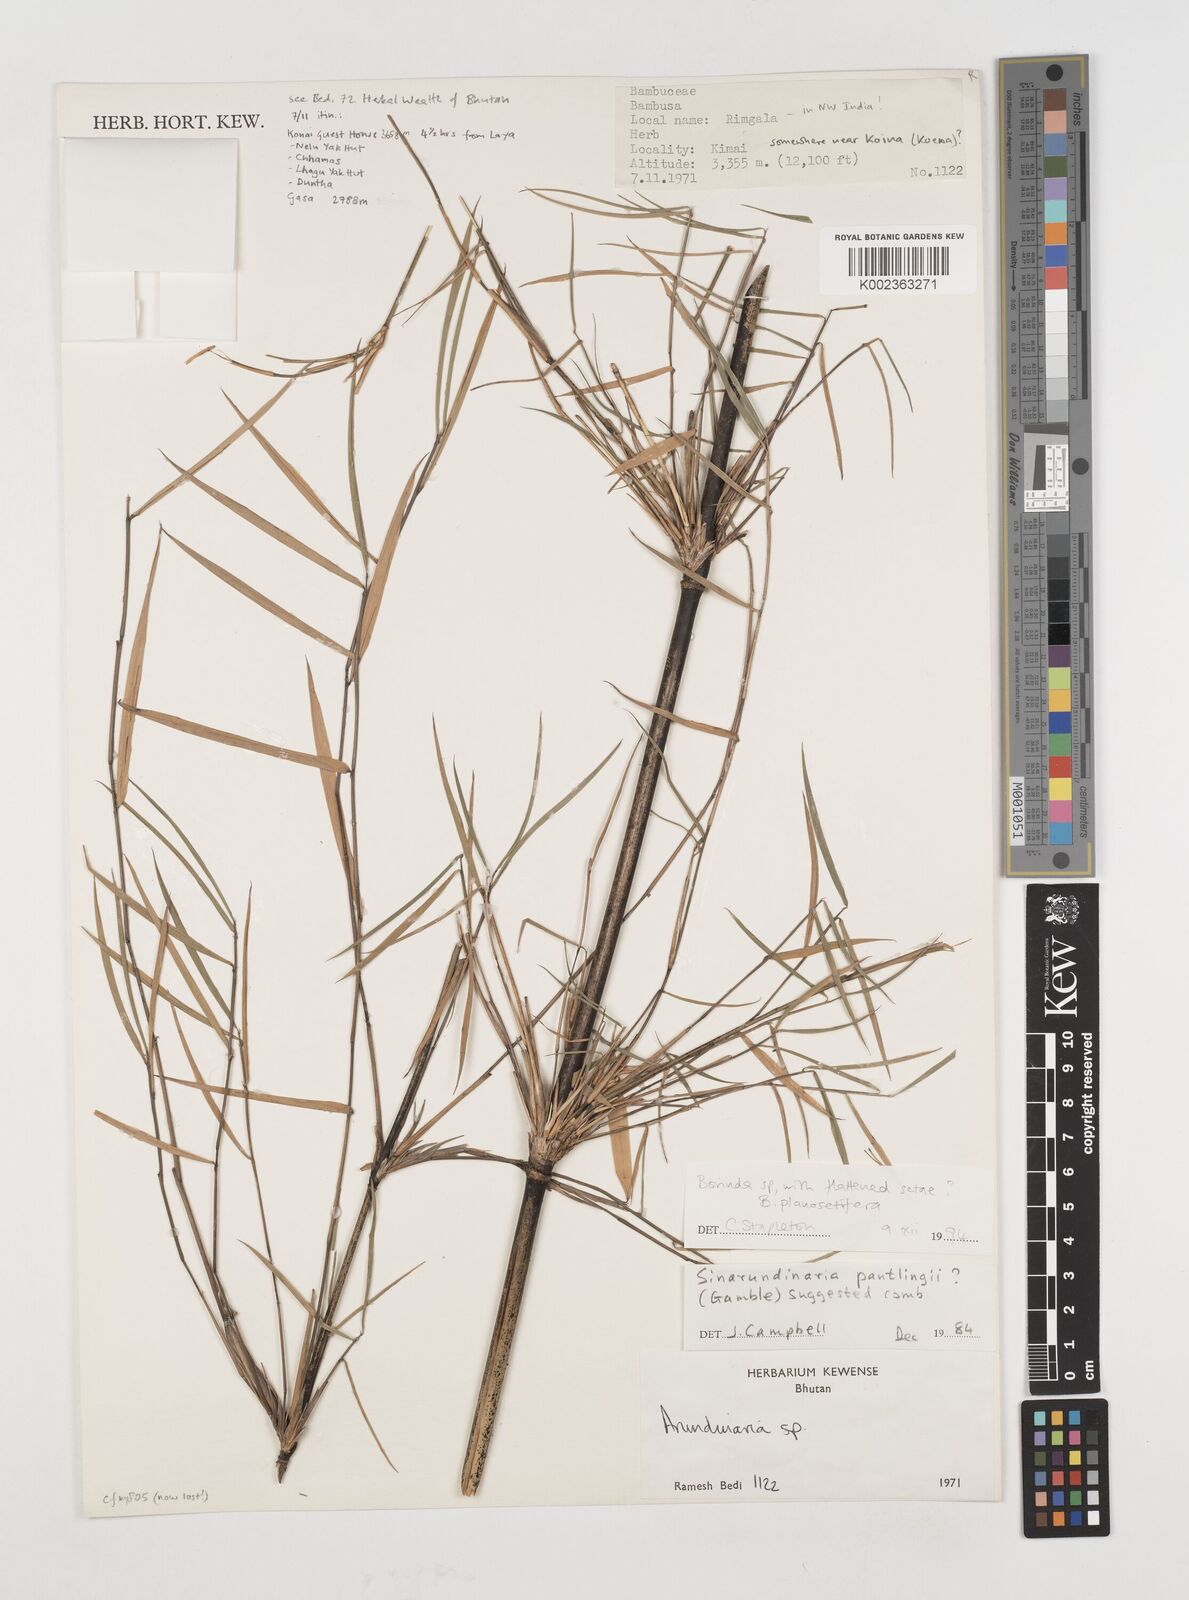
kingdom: Plantae
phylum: Tracheophyta
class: Liliopsida
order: Poales
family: Poaceae
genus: Fargesia
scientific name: Fargesia
